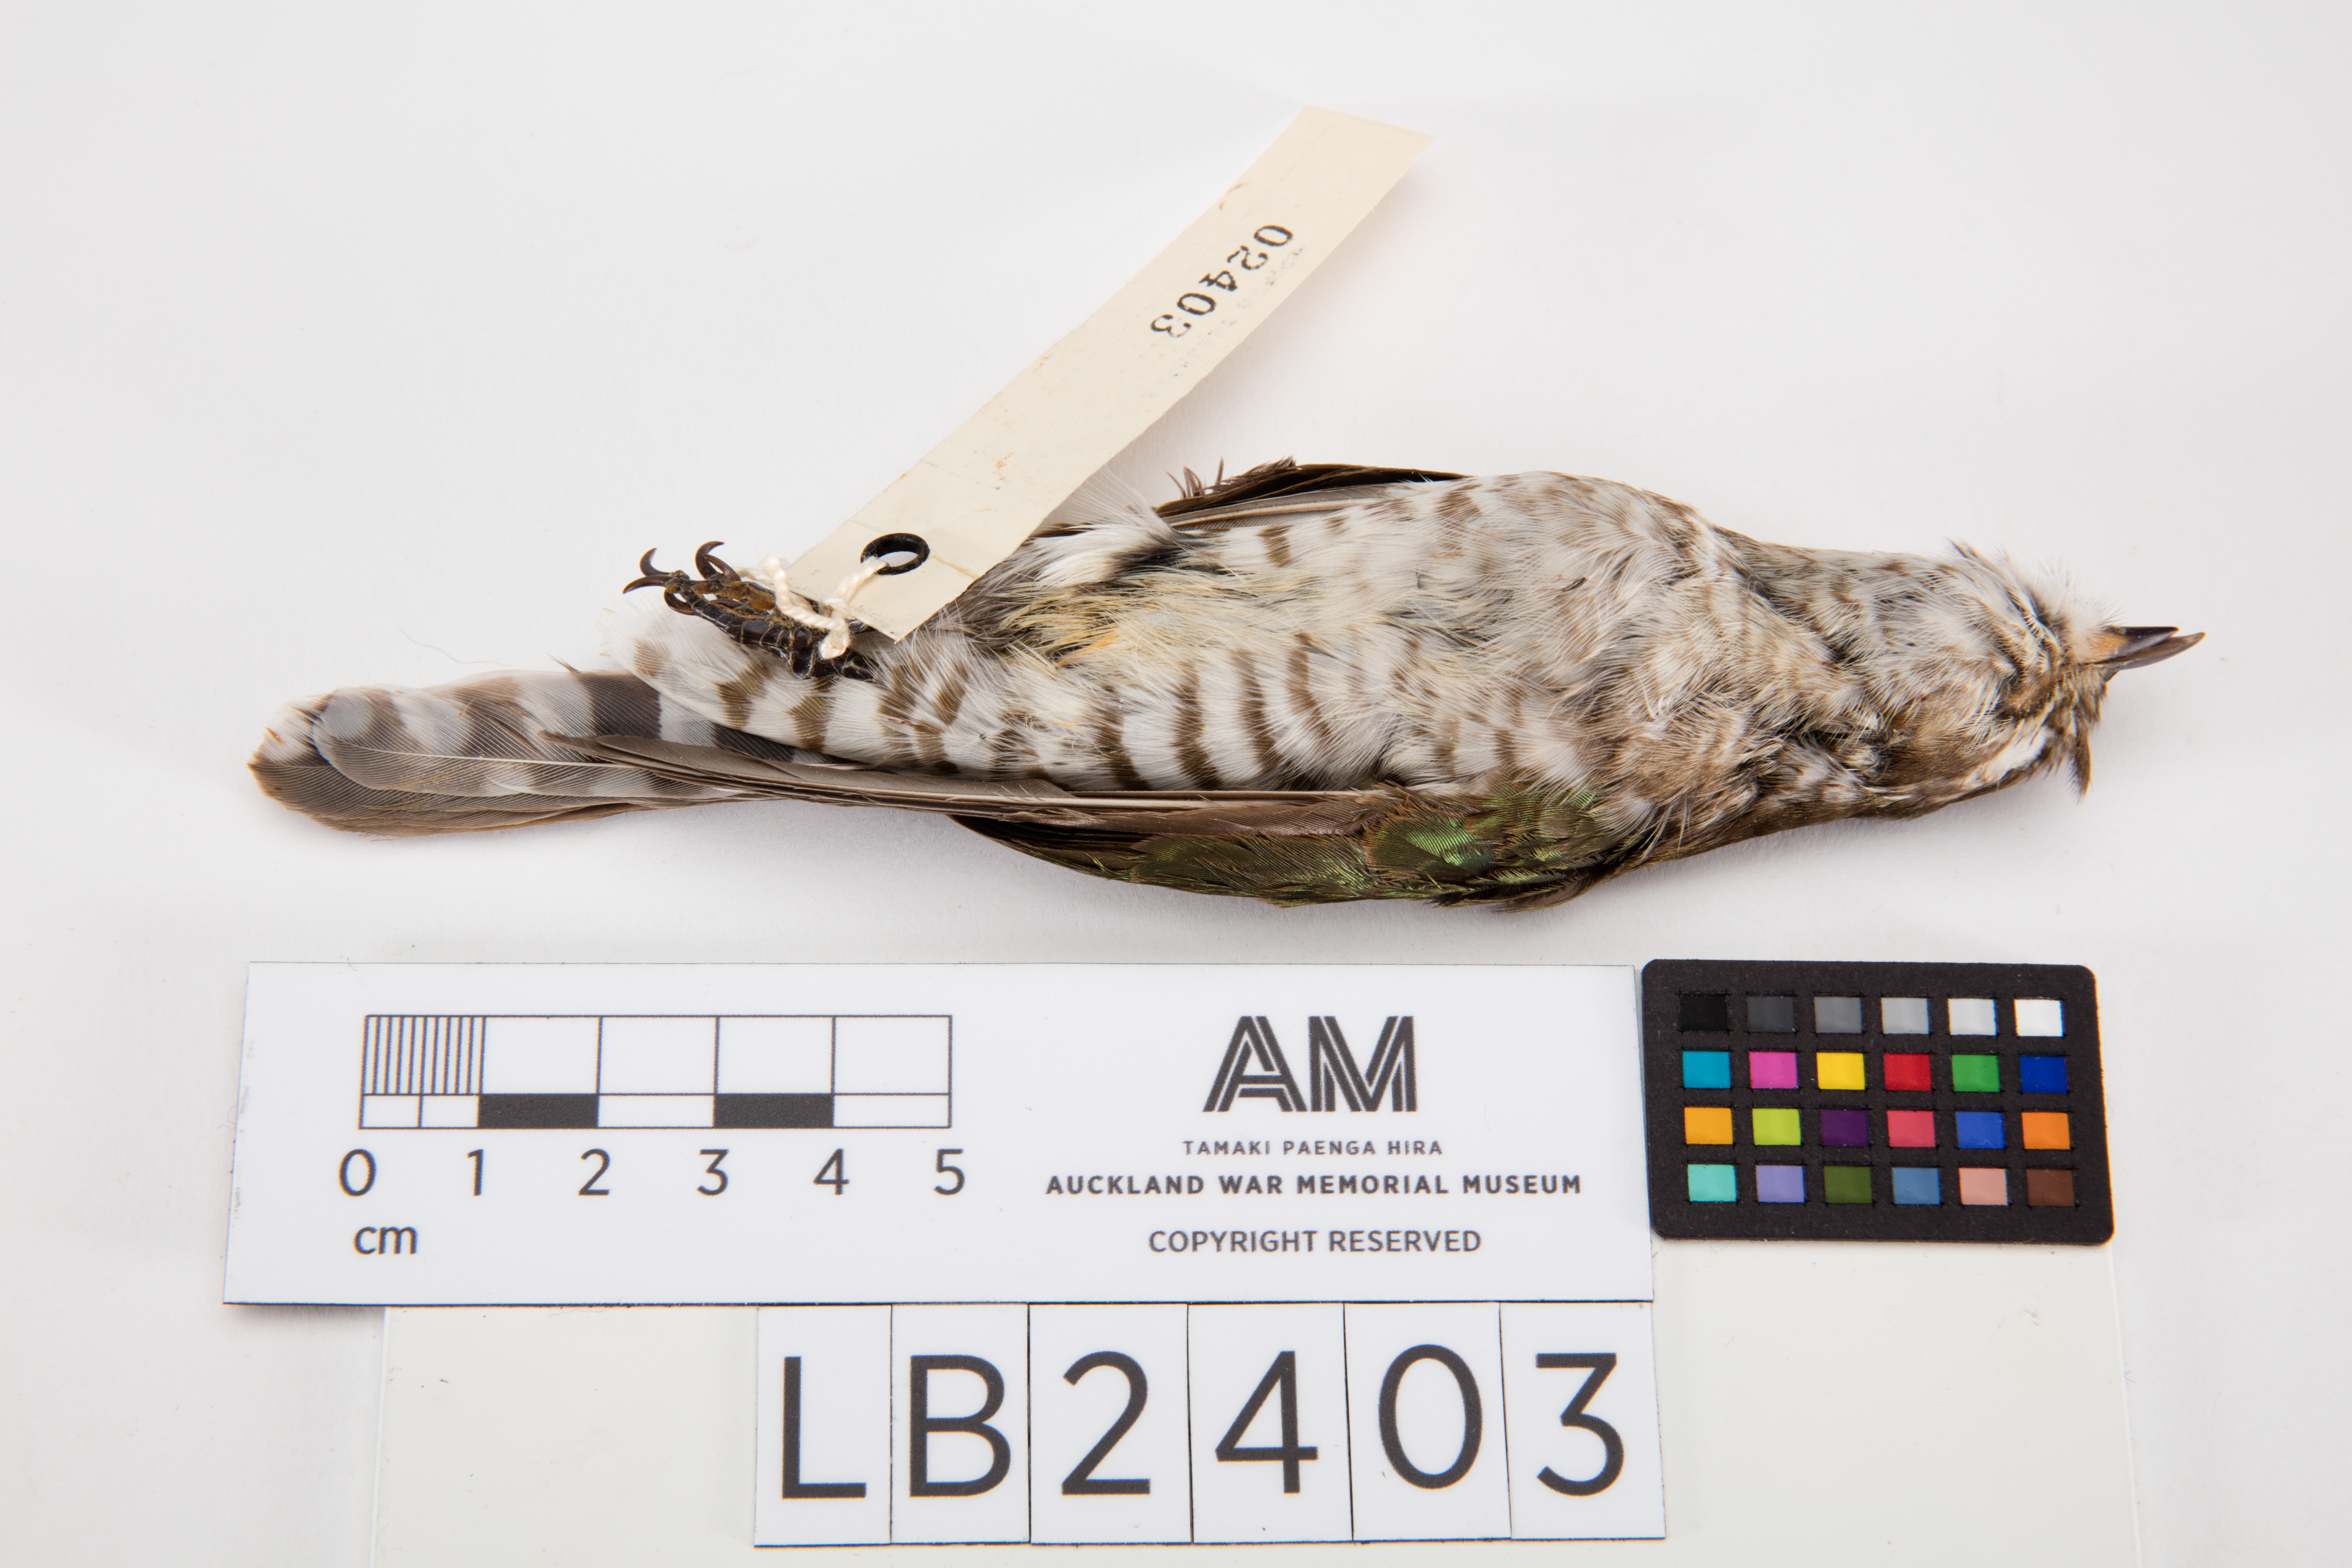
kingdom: Animalia
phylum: Chordata
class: Aves
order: Cuculiformes
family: Cuculidae
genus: Chrysococcyx
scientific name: Chrysococcyx lucidus
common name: Shining bronze cuckoo
